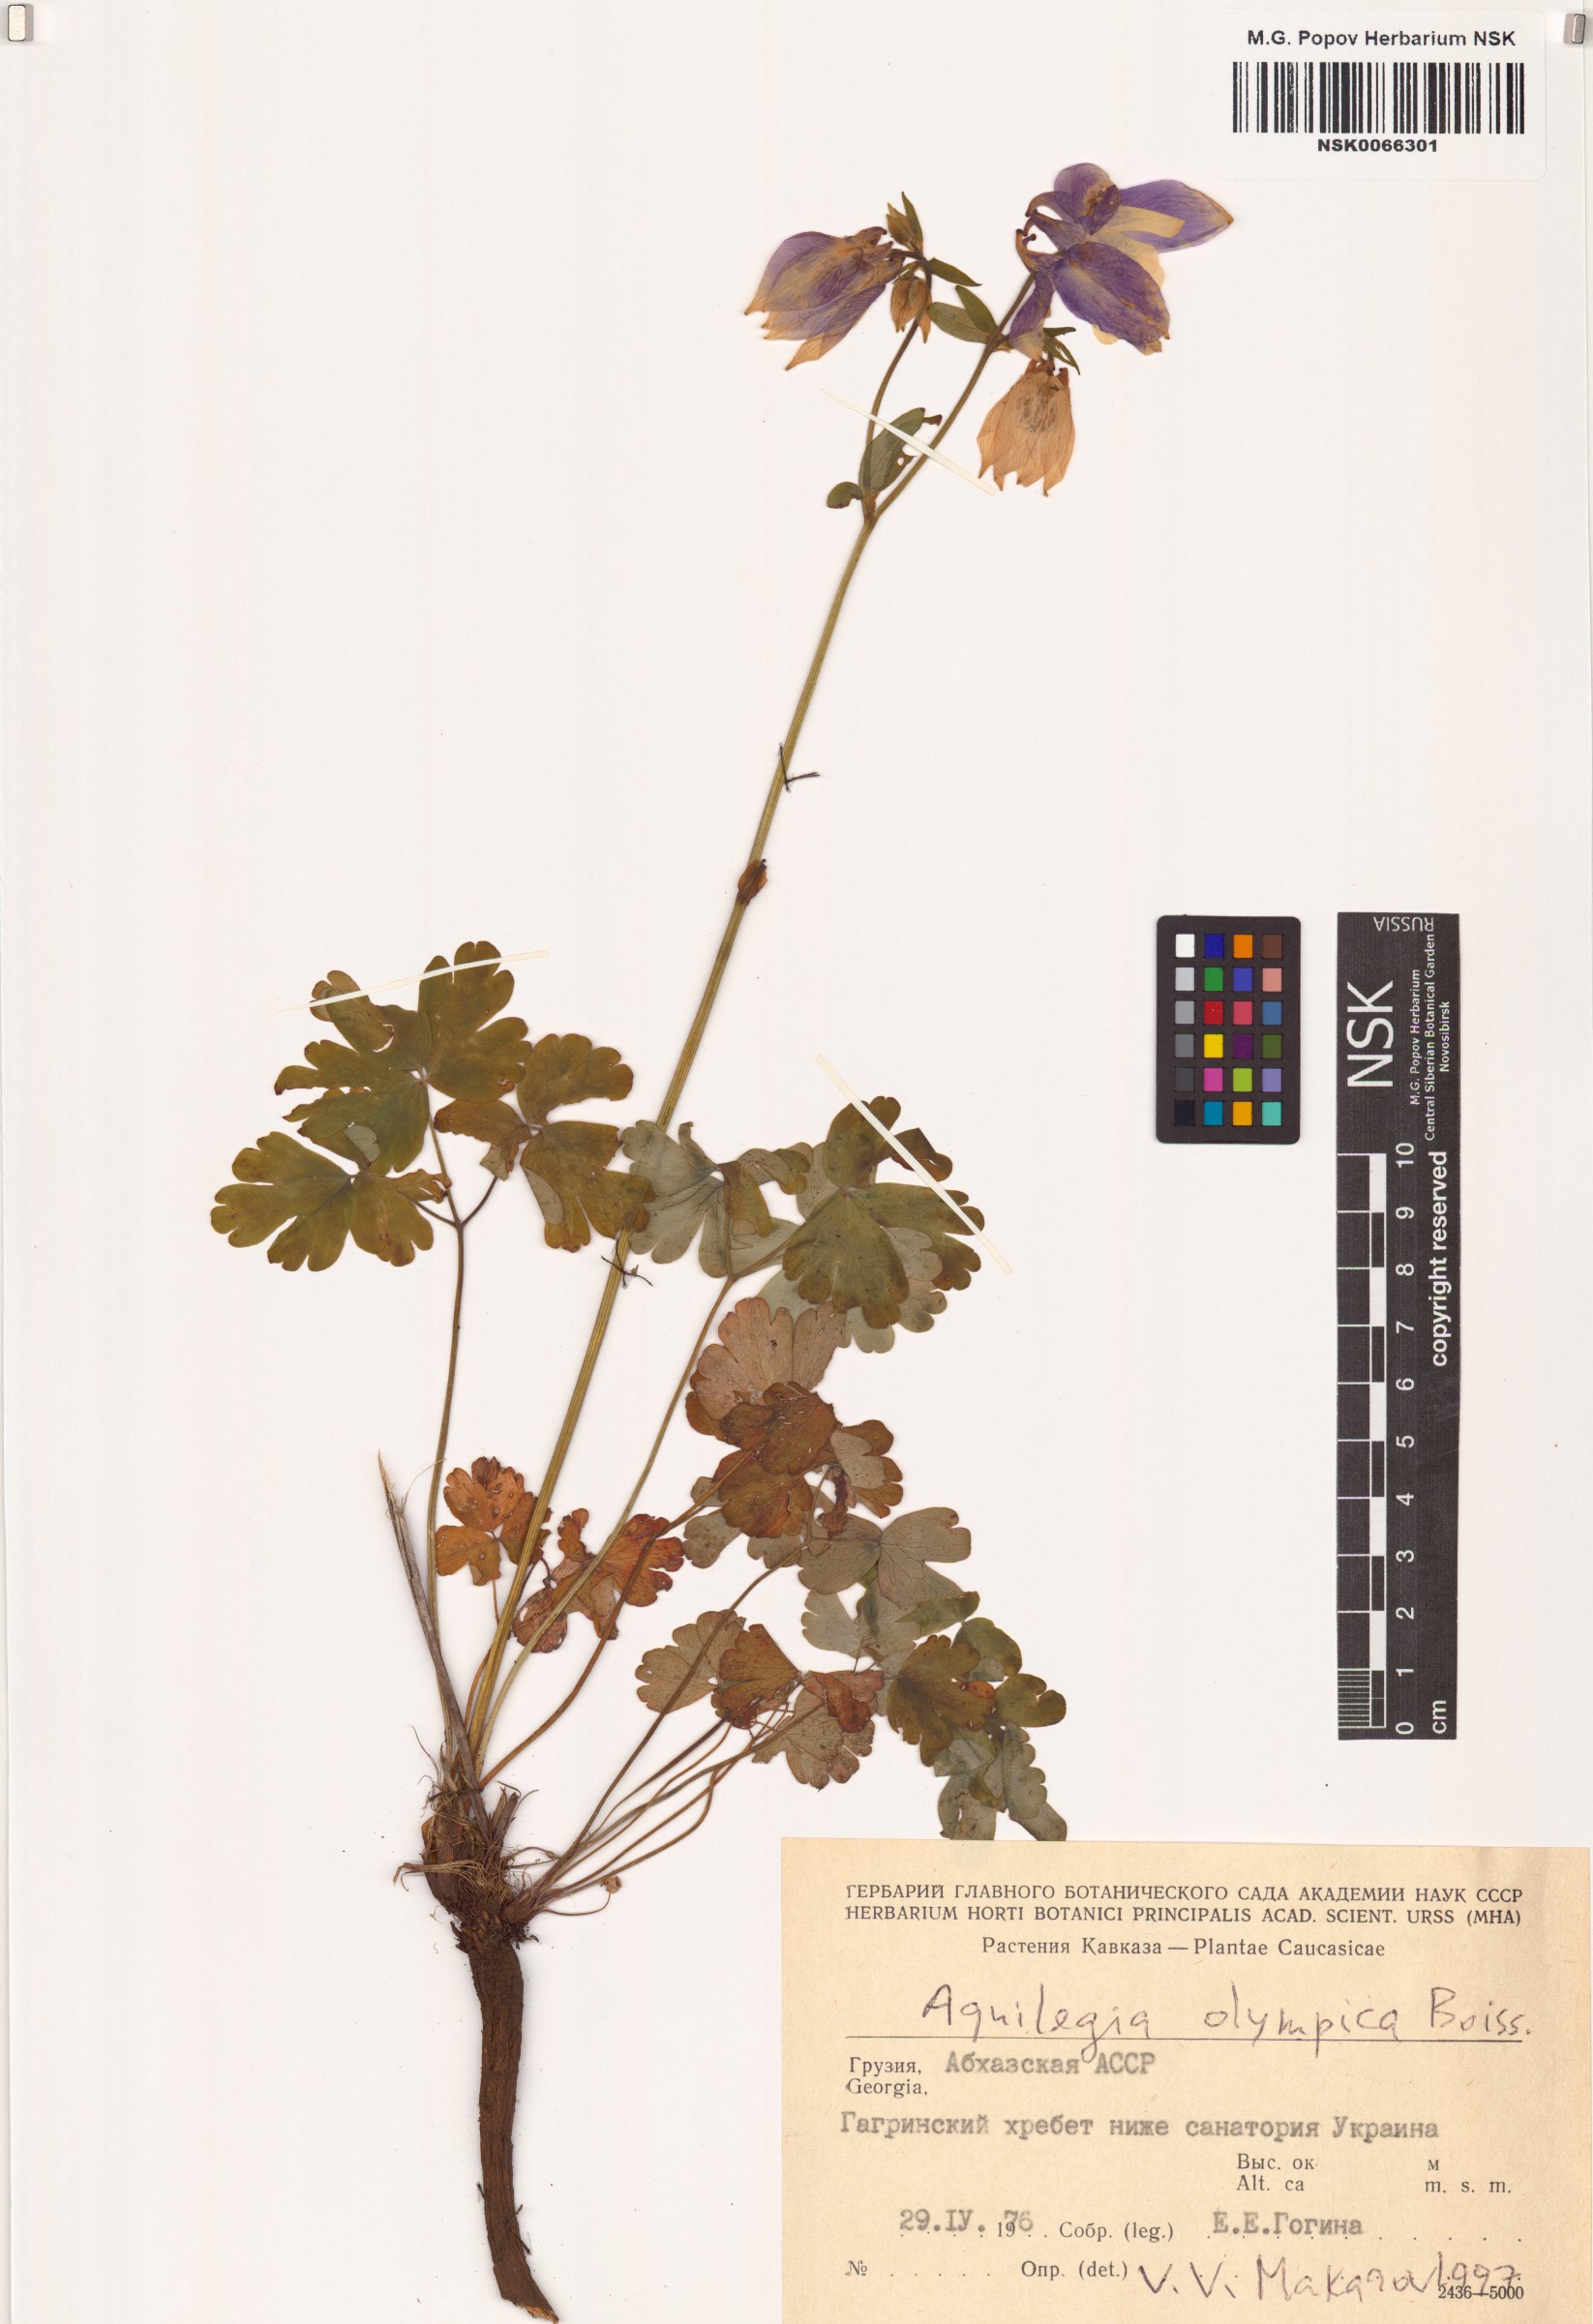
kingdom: Plantae
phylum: Tracheophyta
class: Magnoliopsida
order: Ranunculales
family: Ranunculaceae
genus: Aquilegia
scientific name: Aquilegia olympica
